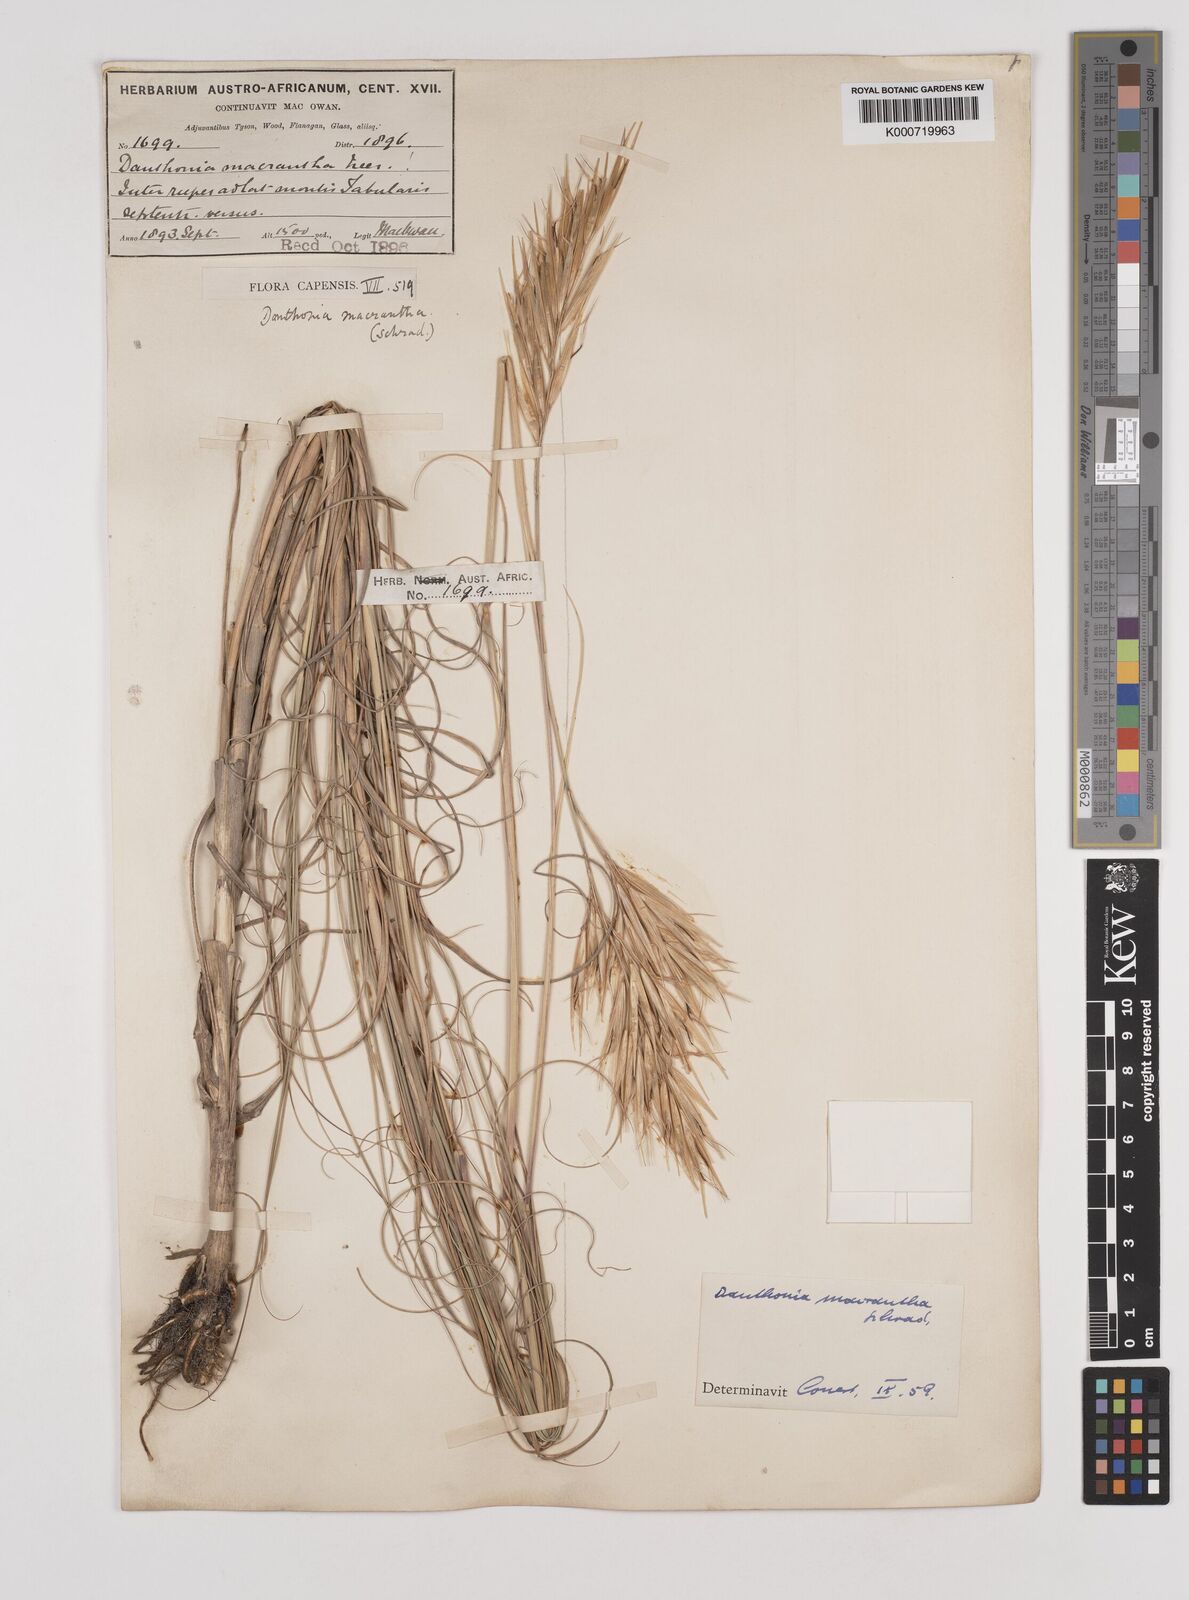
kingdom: Plantae
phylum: Tracheophyta
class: Liliopsida
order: Poales
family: Poaceae
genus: Pseudopentameris
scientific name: Pseudopentameris macrantha
